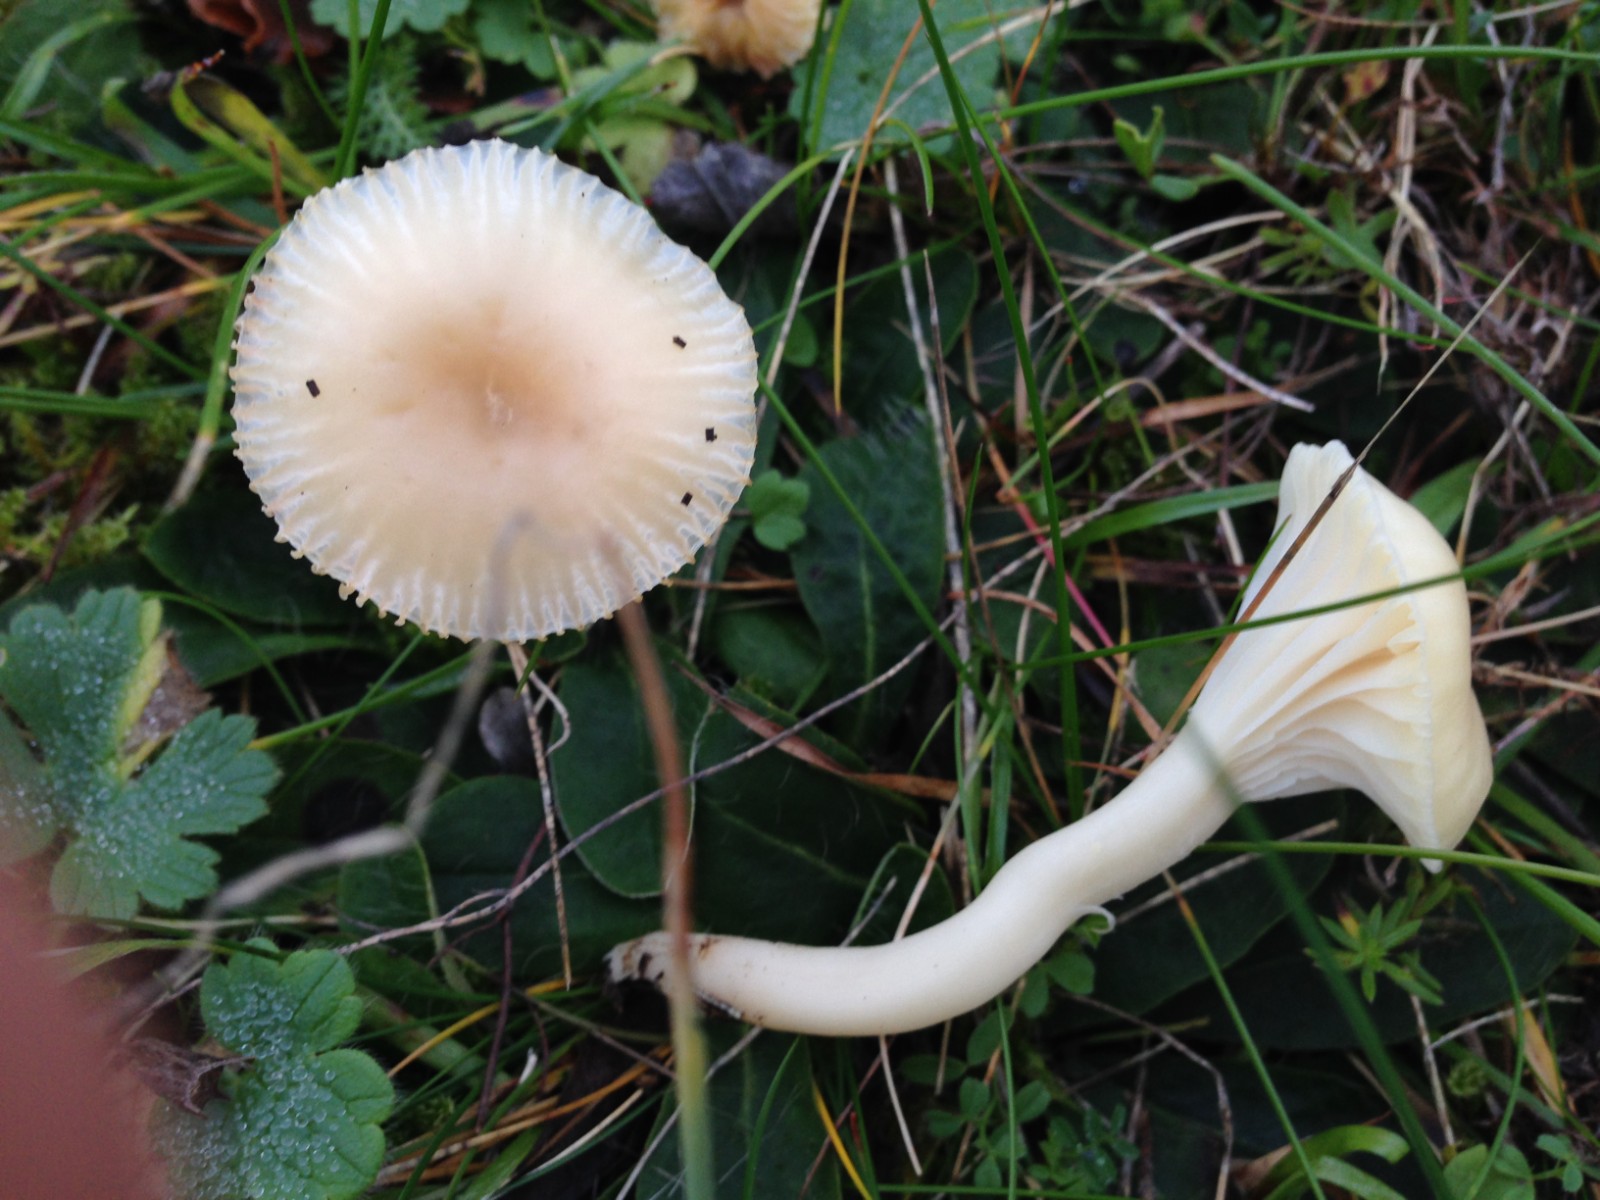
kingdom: Fungi
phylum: Basidiomycota
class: Agaricomycetes
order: Agaricales
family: Hygrophoraceae
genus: Cuphophyllus
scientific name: Cuphophyllus virgineus
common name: snehvid vokshat
